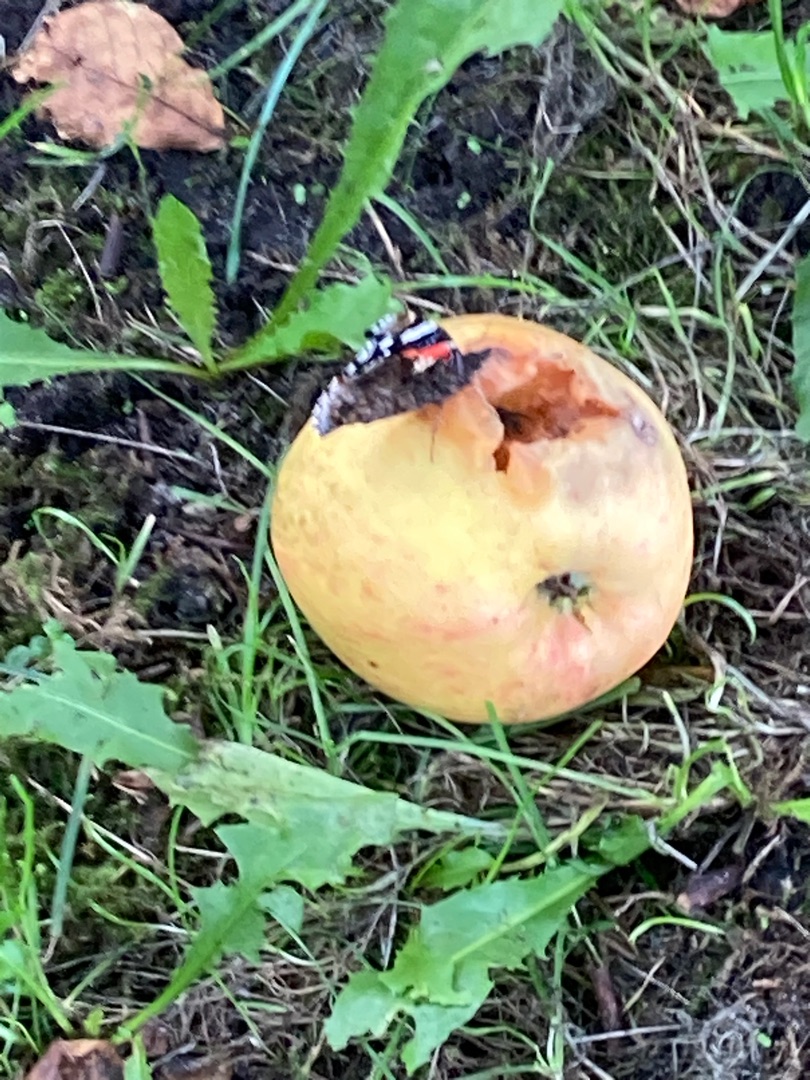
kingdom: Animalia
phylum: Arthropoda
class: Insecta
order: Lepidoptera
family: Nymphalidae
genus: Vanessa
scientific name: Vanessa atalanta
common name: Admiral
